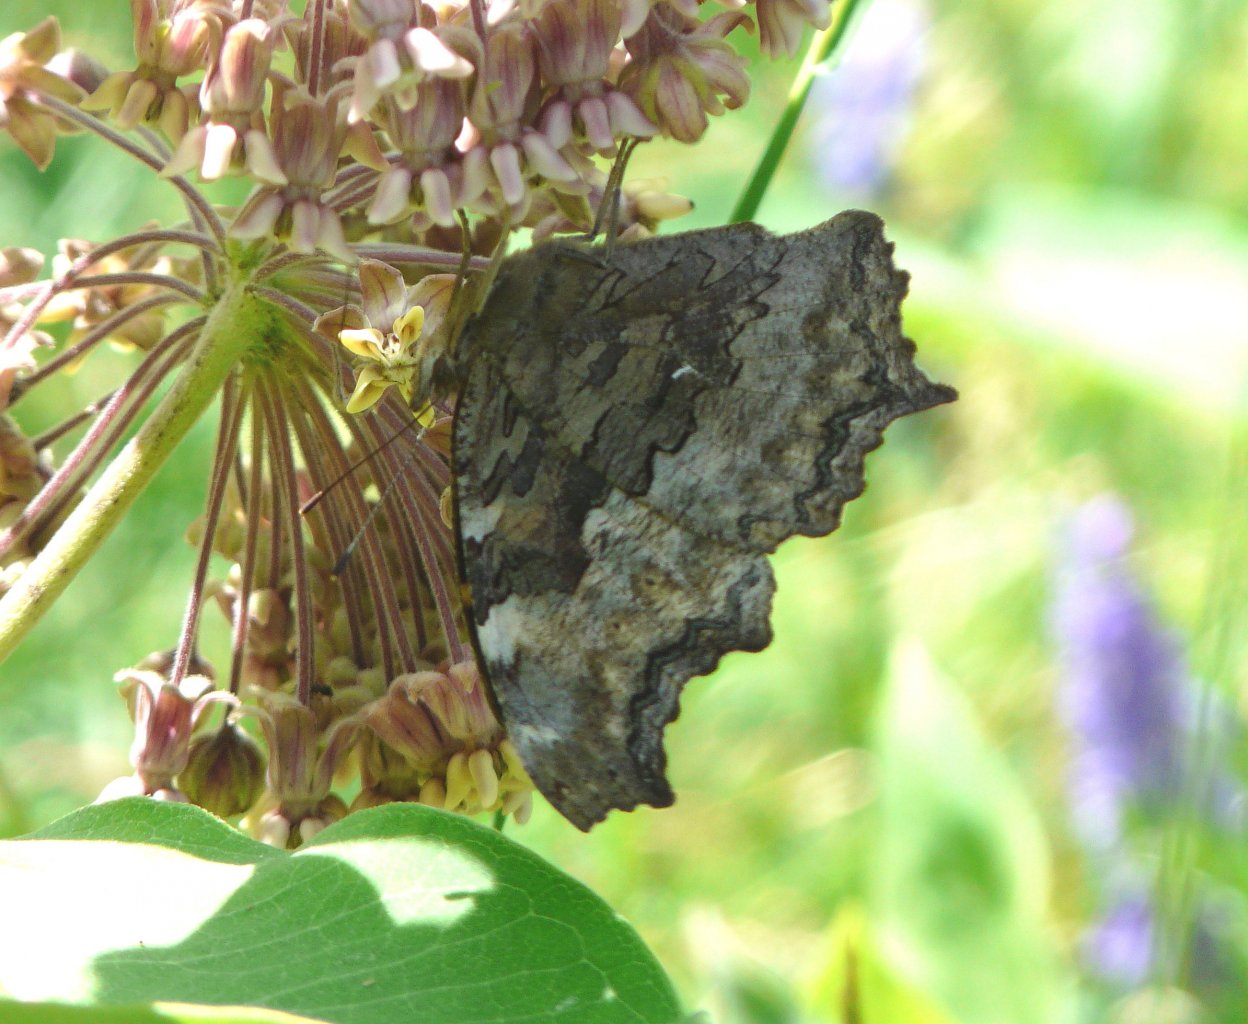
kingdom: Animalia
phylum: Arthropoda
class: Insecta
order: Lepidoptera
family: Nymphalidae
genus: Polygonia
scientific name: Polygonia vaualbum
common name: Compton Tortoiseshell
